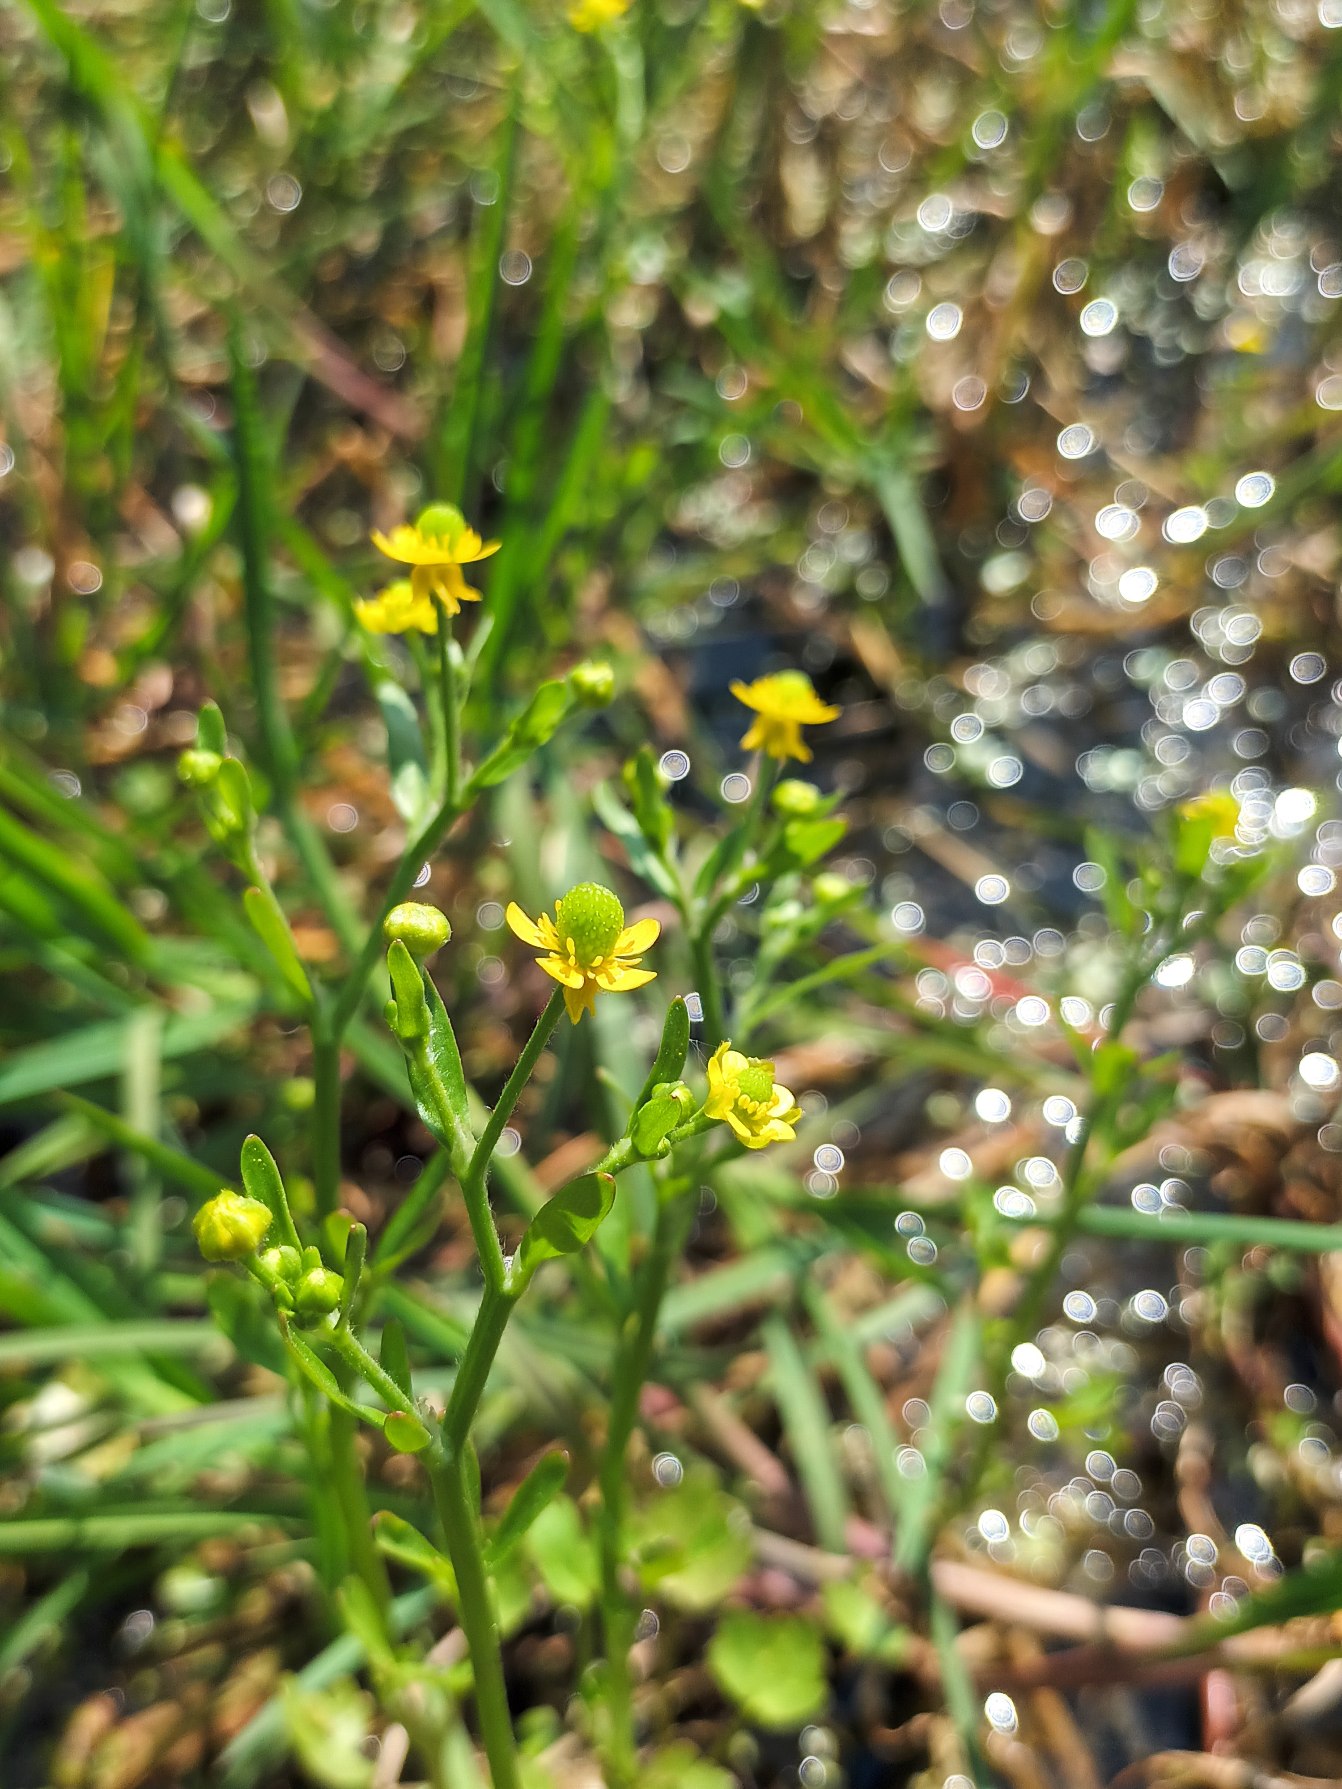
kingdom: Plantae
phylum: Tracheophyta
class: Magnoliopsida
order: Ranunculales
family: Ranunculaceae
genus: Ranunculus
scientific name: Ranunculus sceleratus
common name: Tigger-ranunkel
